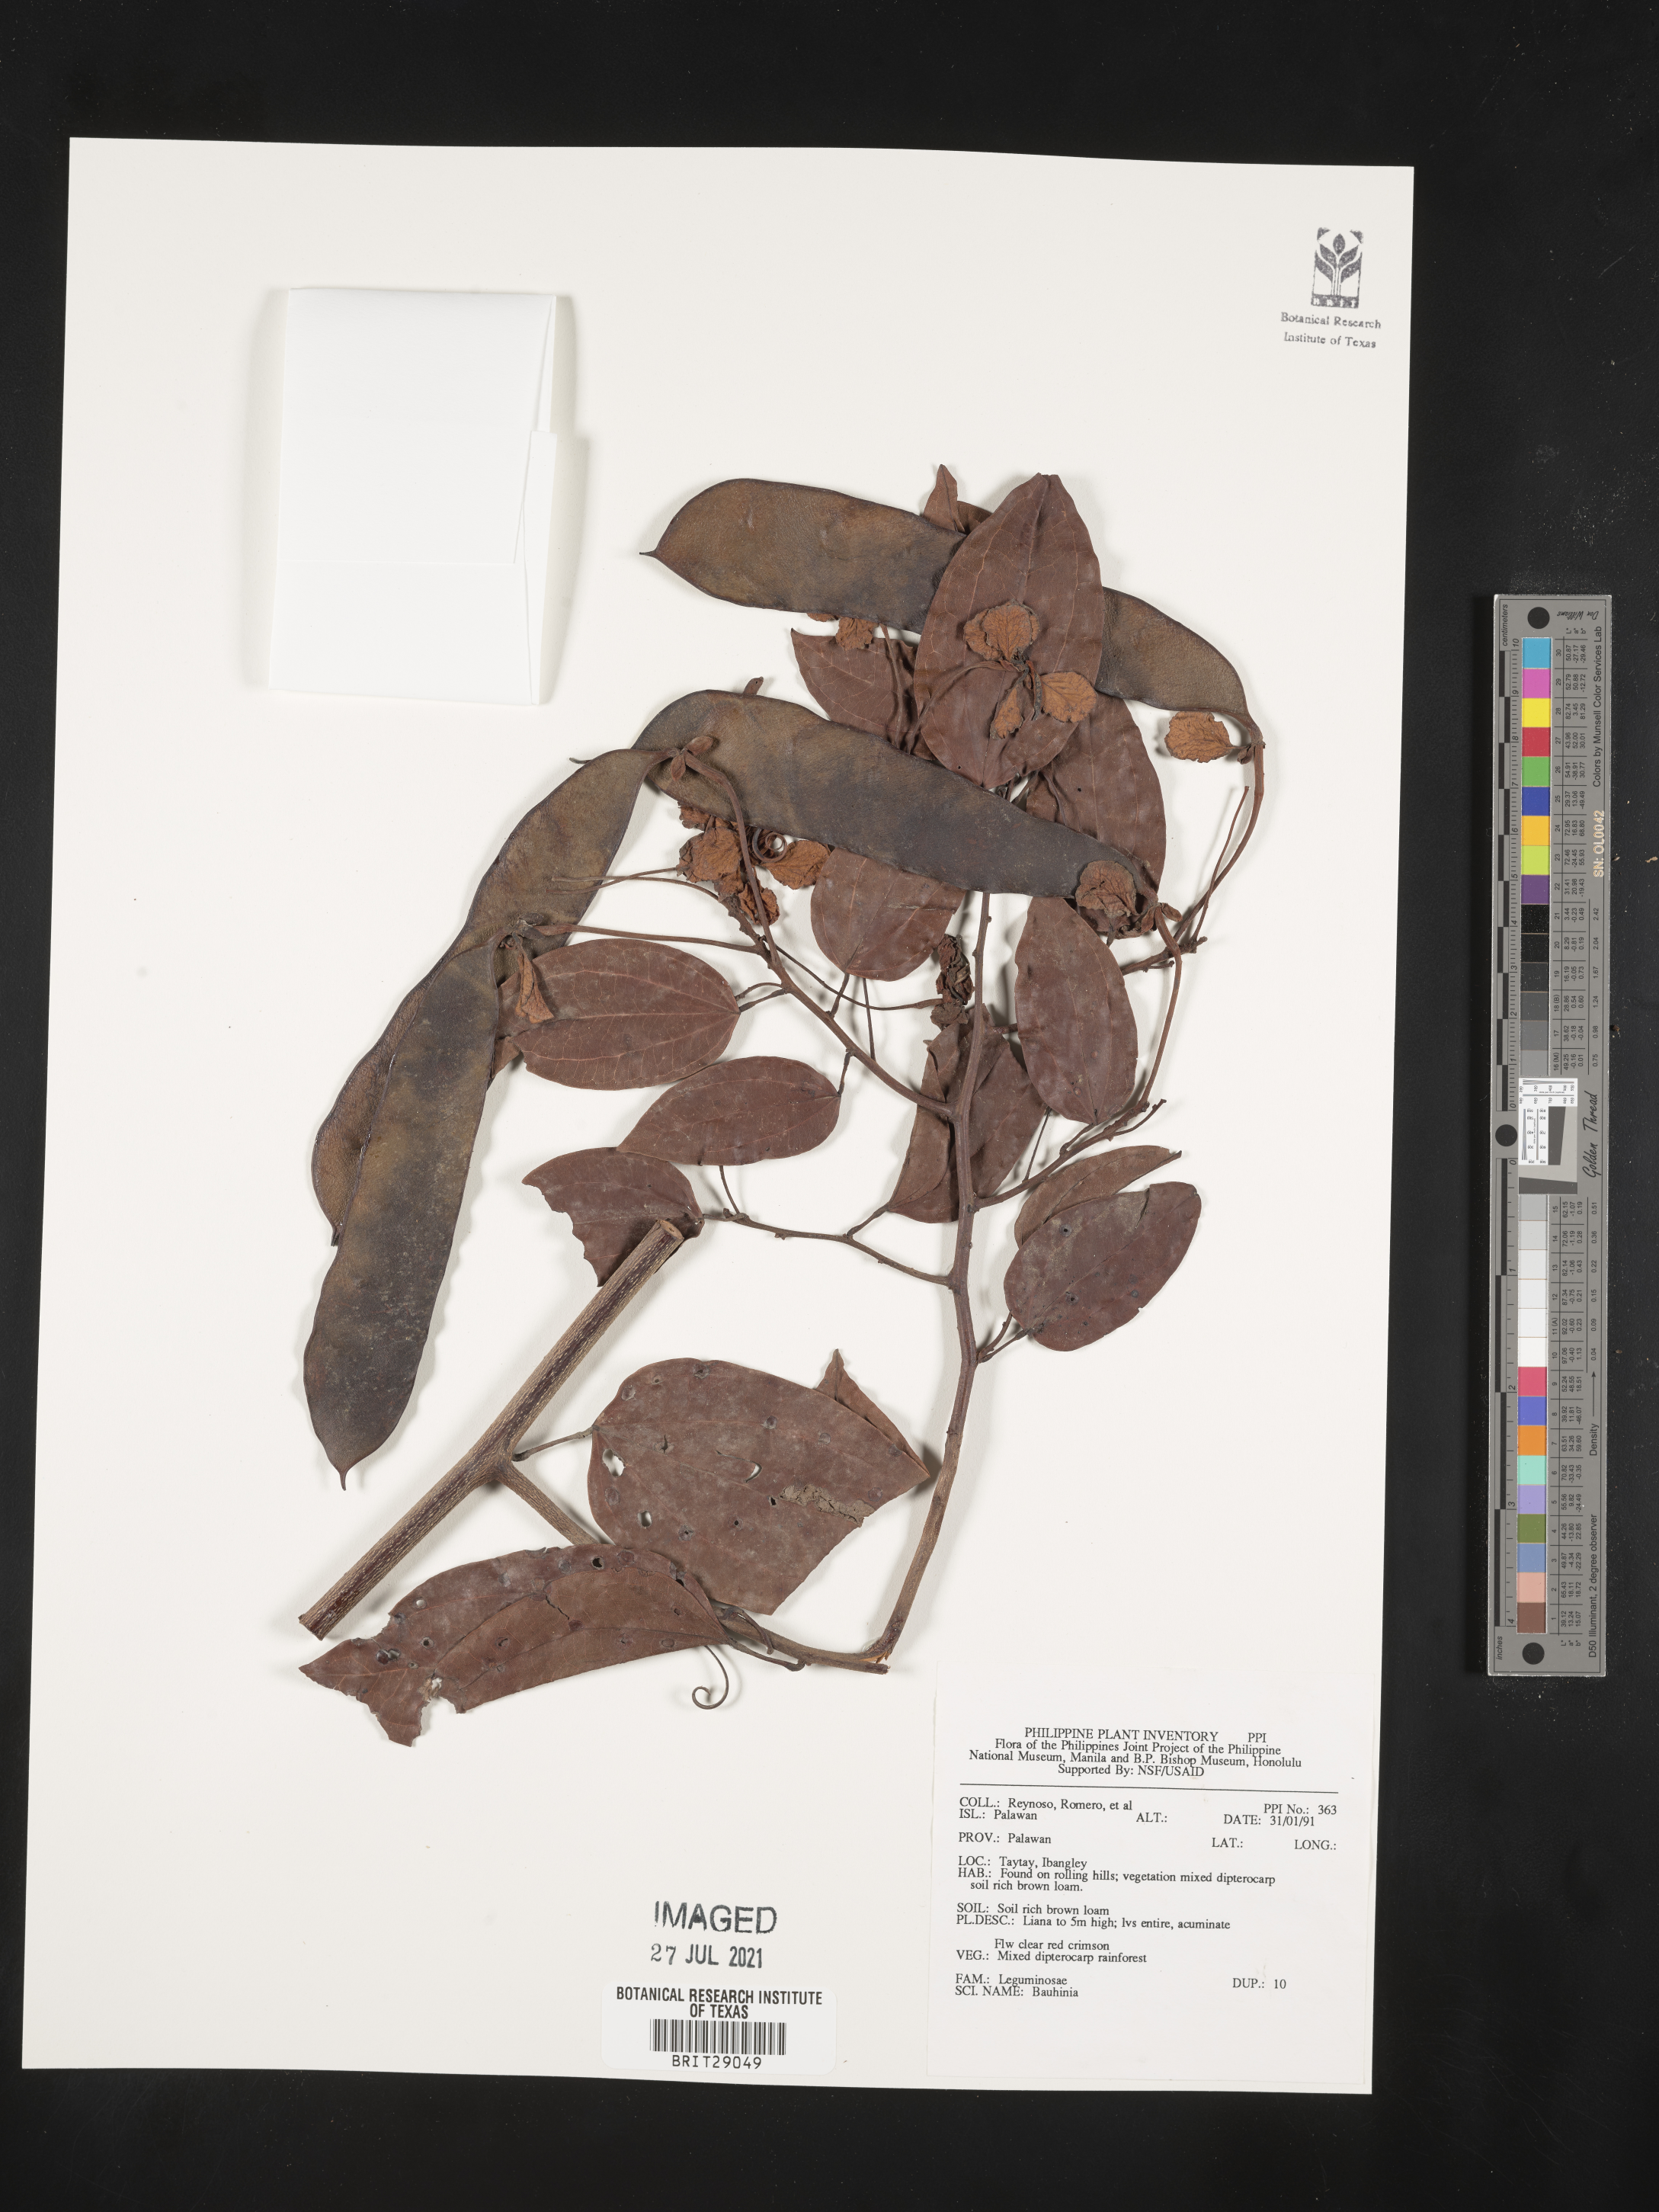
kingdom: Plantae
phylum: Tracheophyta
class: Magnoliopsida
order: Fabales
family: Fabaceae
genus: Bauhinia
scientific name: Bauhinia
